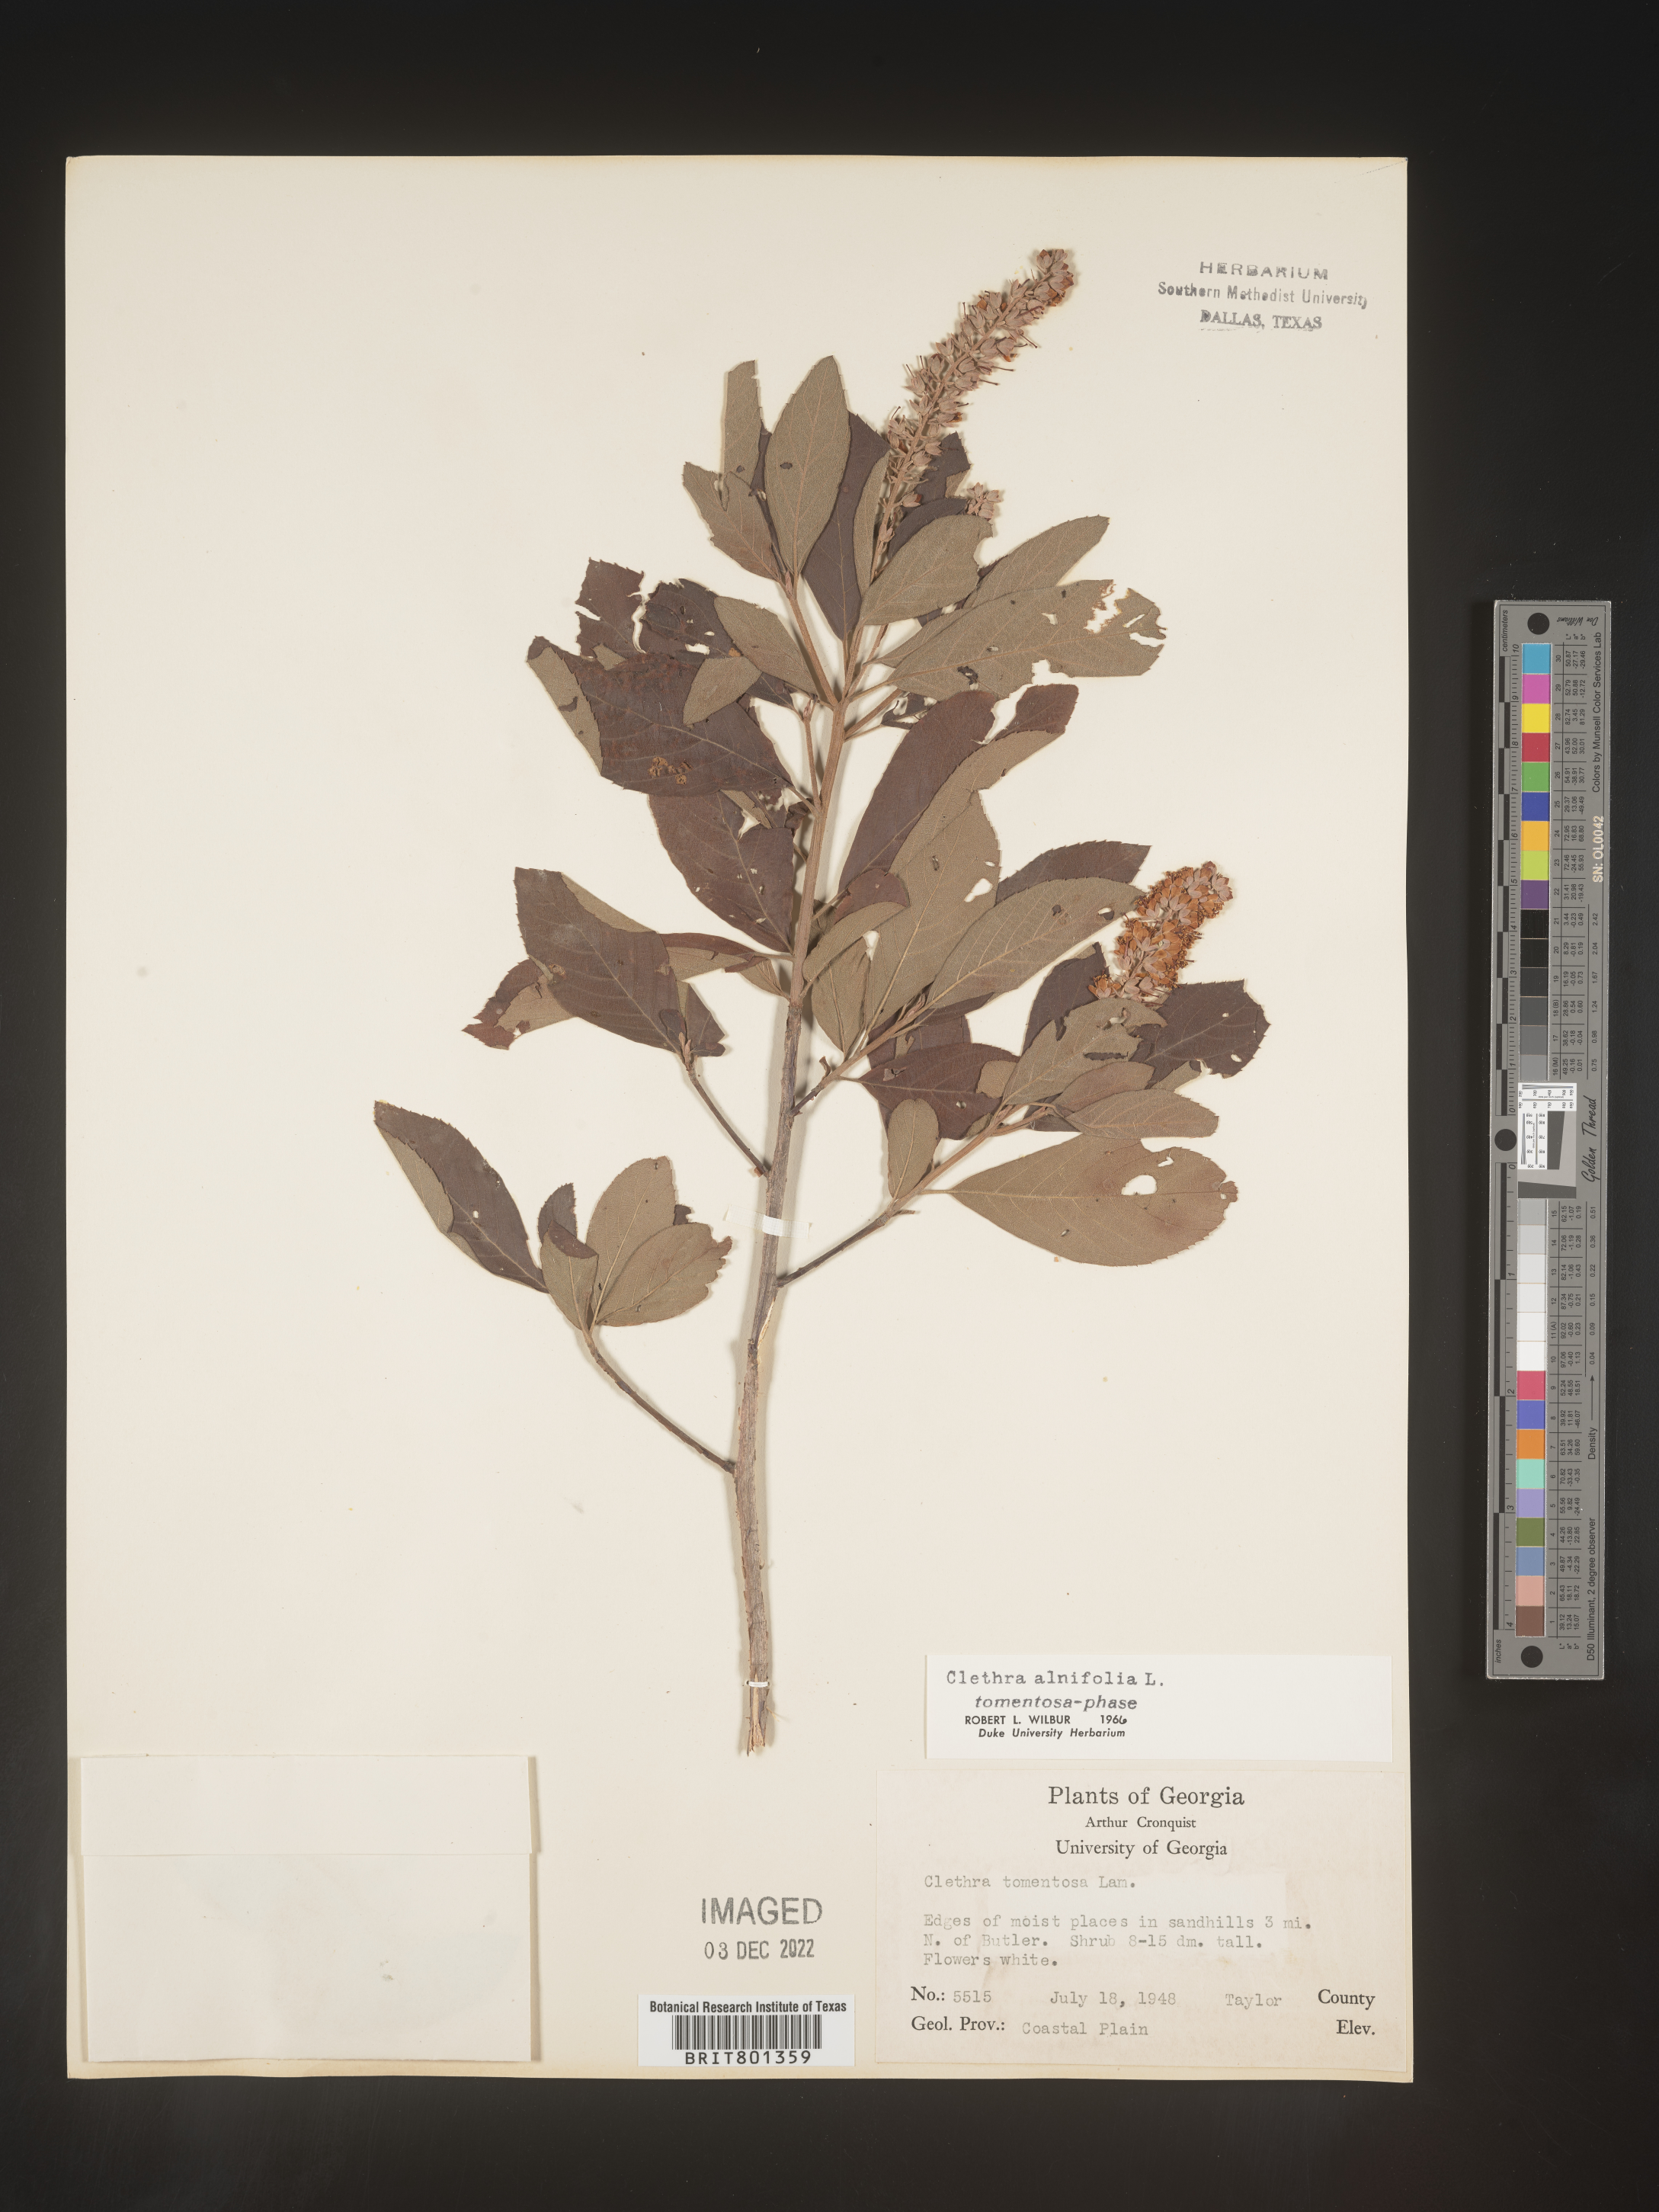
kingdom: Plantae
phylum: Tracheophyta
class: Magnoliopsida
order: Ericales
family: Clethraceae
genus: Clethra
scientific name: Clethra alnifolia
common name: Sweet pepperbush
